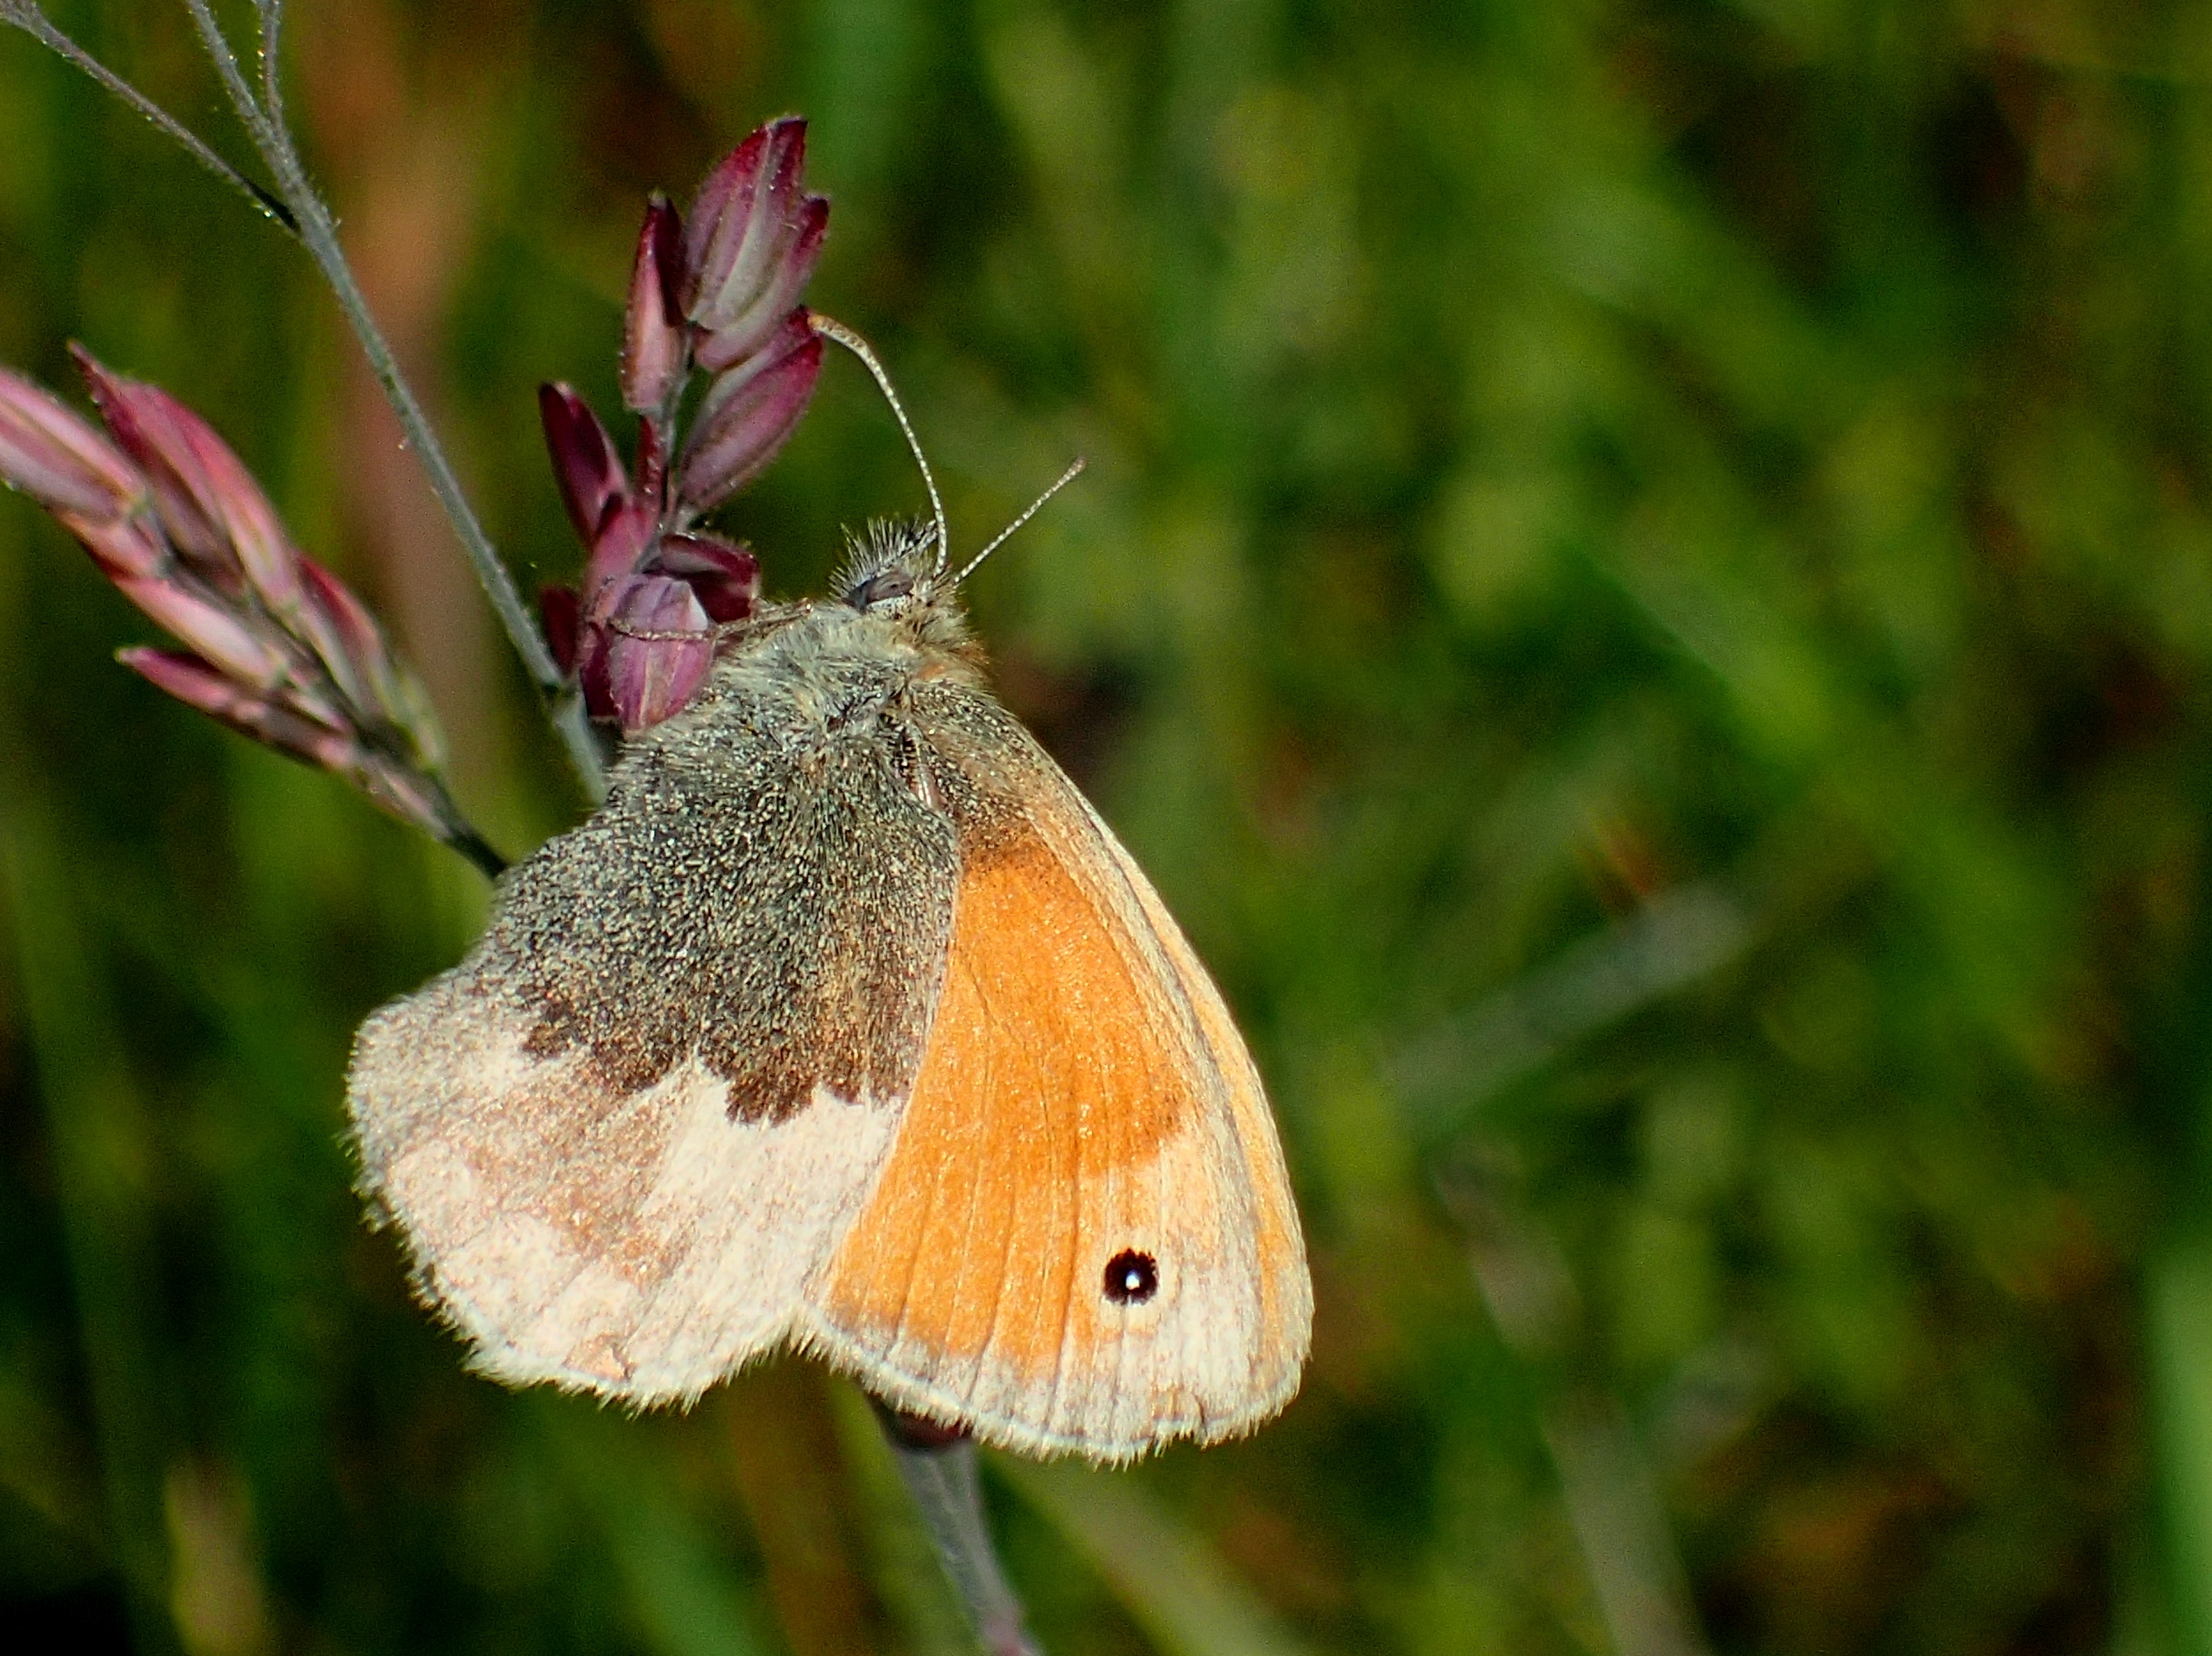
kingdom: Animalia
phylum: Arthropoda
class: Insecta
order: Lepidoptera
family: Nymphalidae
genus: Coenonympha
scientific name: Coenonympha pamphilus
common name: Okkergul randøje
